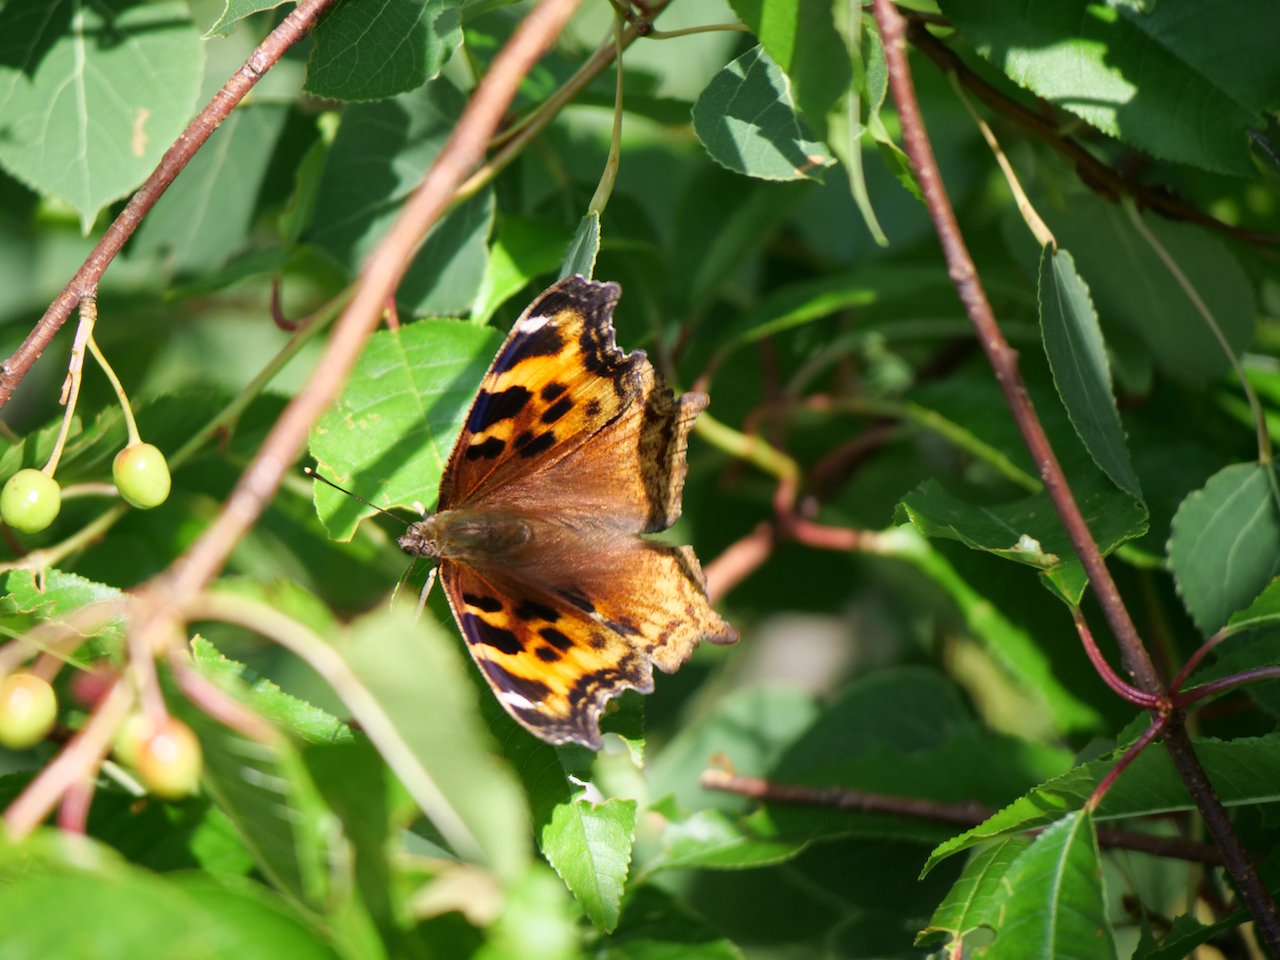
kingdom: Animalia
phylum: Arthropoda
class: Insecta
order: Lepidoptera
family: Nymphalidae
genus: Polygonia
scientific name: Polygonia vaualbum
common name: Compton Tortoiseshell
